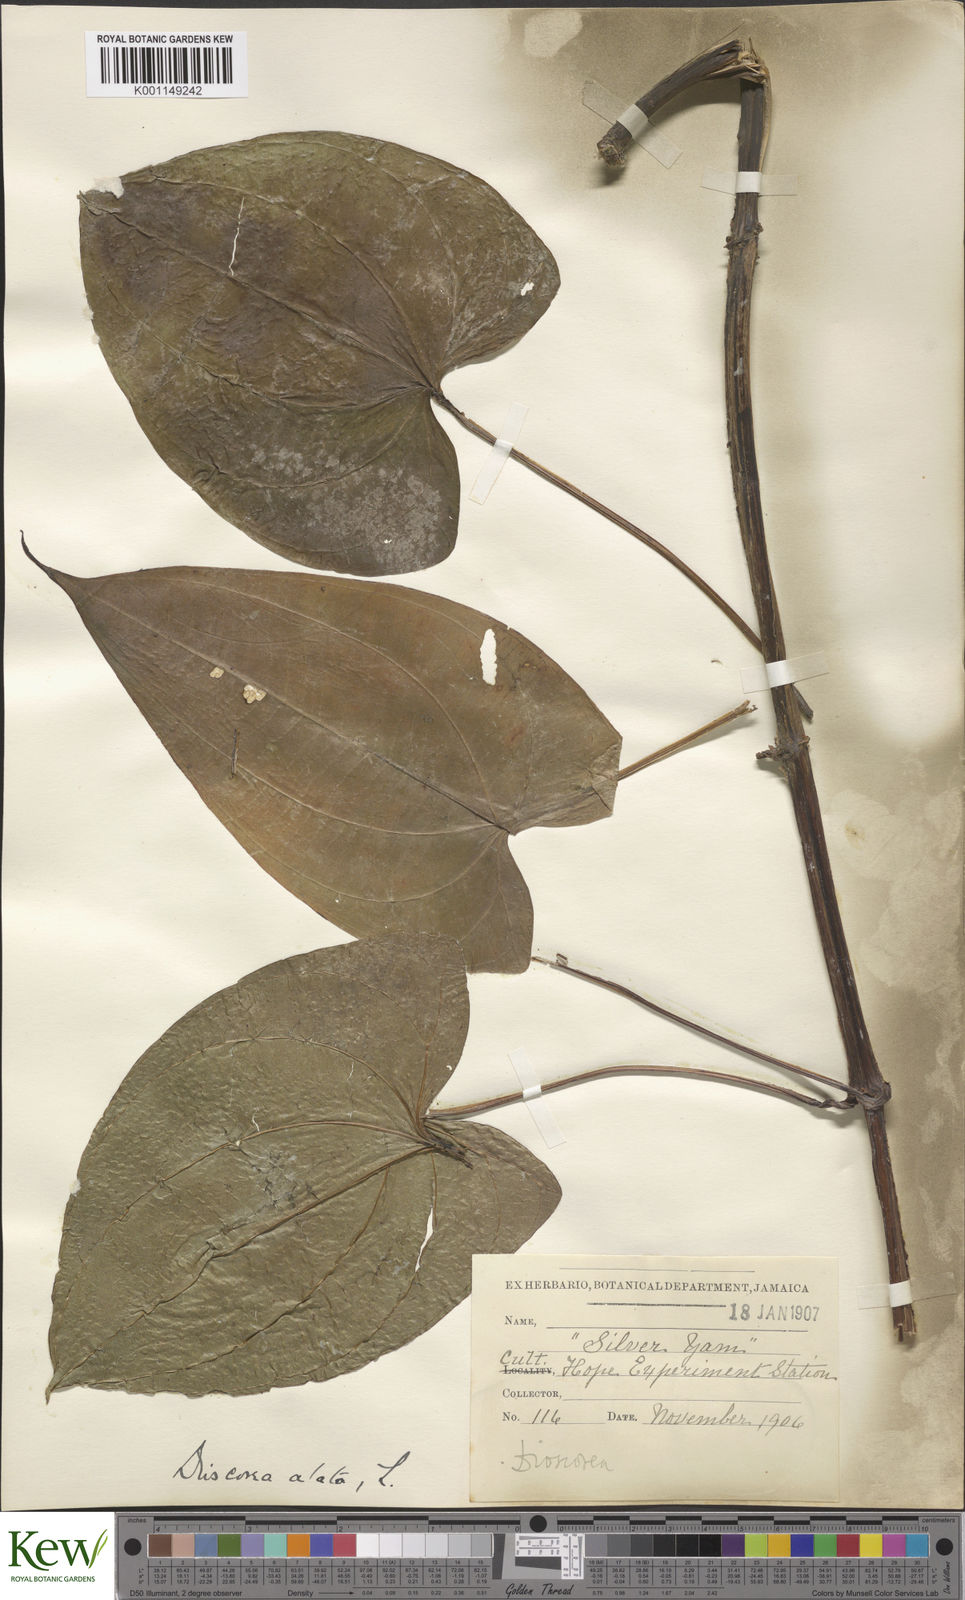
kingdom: Plantae
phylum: Tracheophyta
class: Liliopsida
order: Dioscoreales
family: Dioscoreaceae
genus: Dioscorea
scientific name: Dioscorea alata
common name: Water yam
